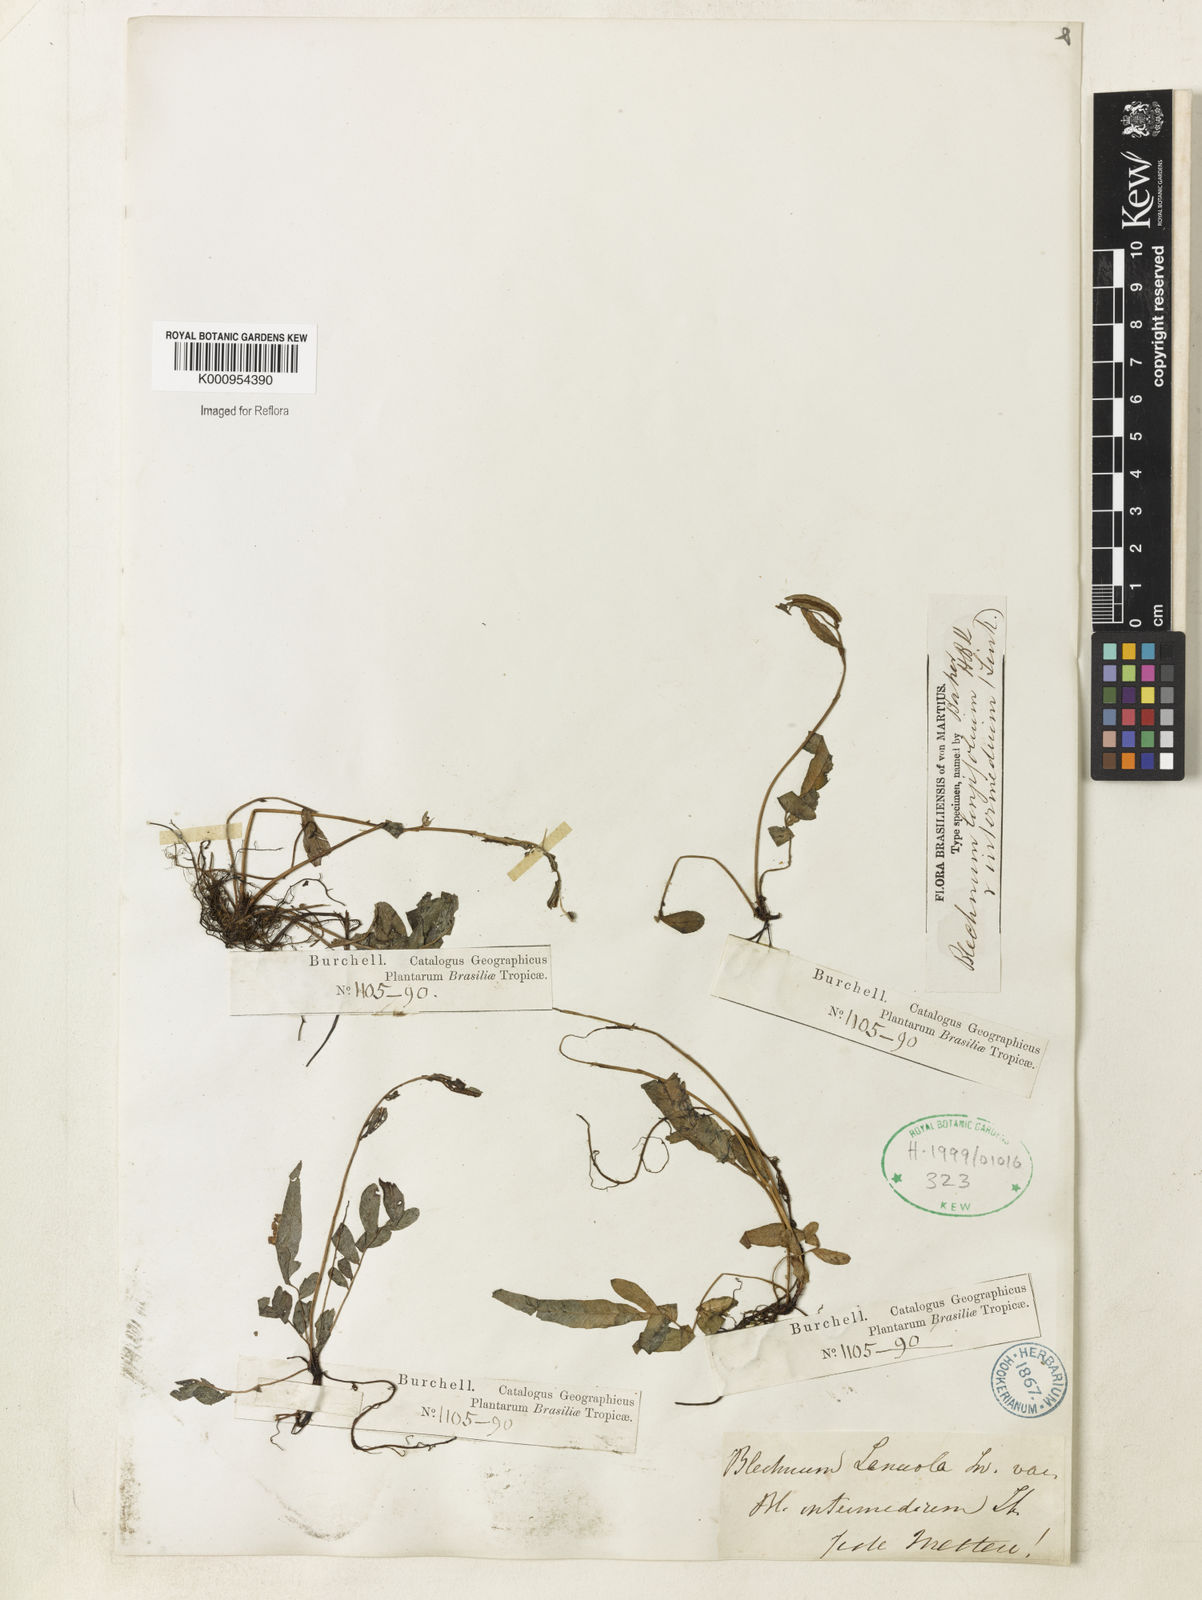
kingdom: Plantae
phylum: Tracheophyta
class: Polypodiopsida
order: Polypodiales
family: Blechnaceae
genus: Blechnum
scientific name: Blechnum lanceola
